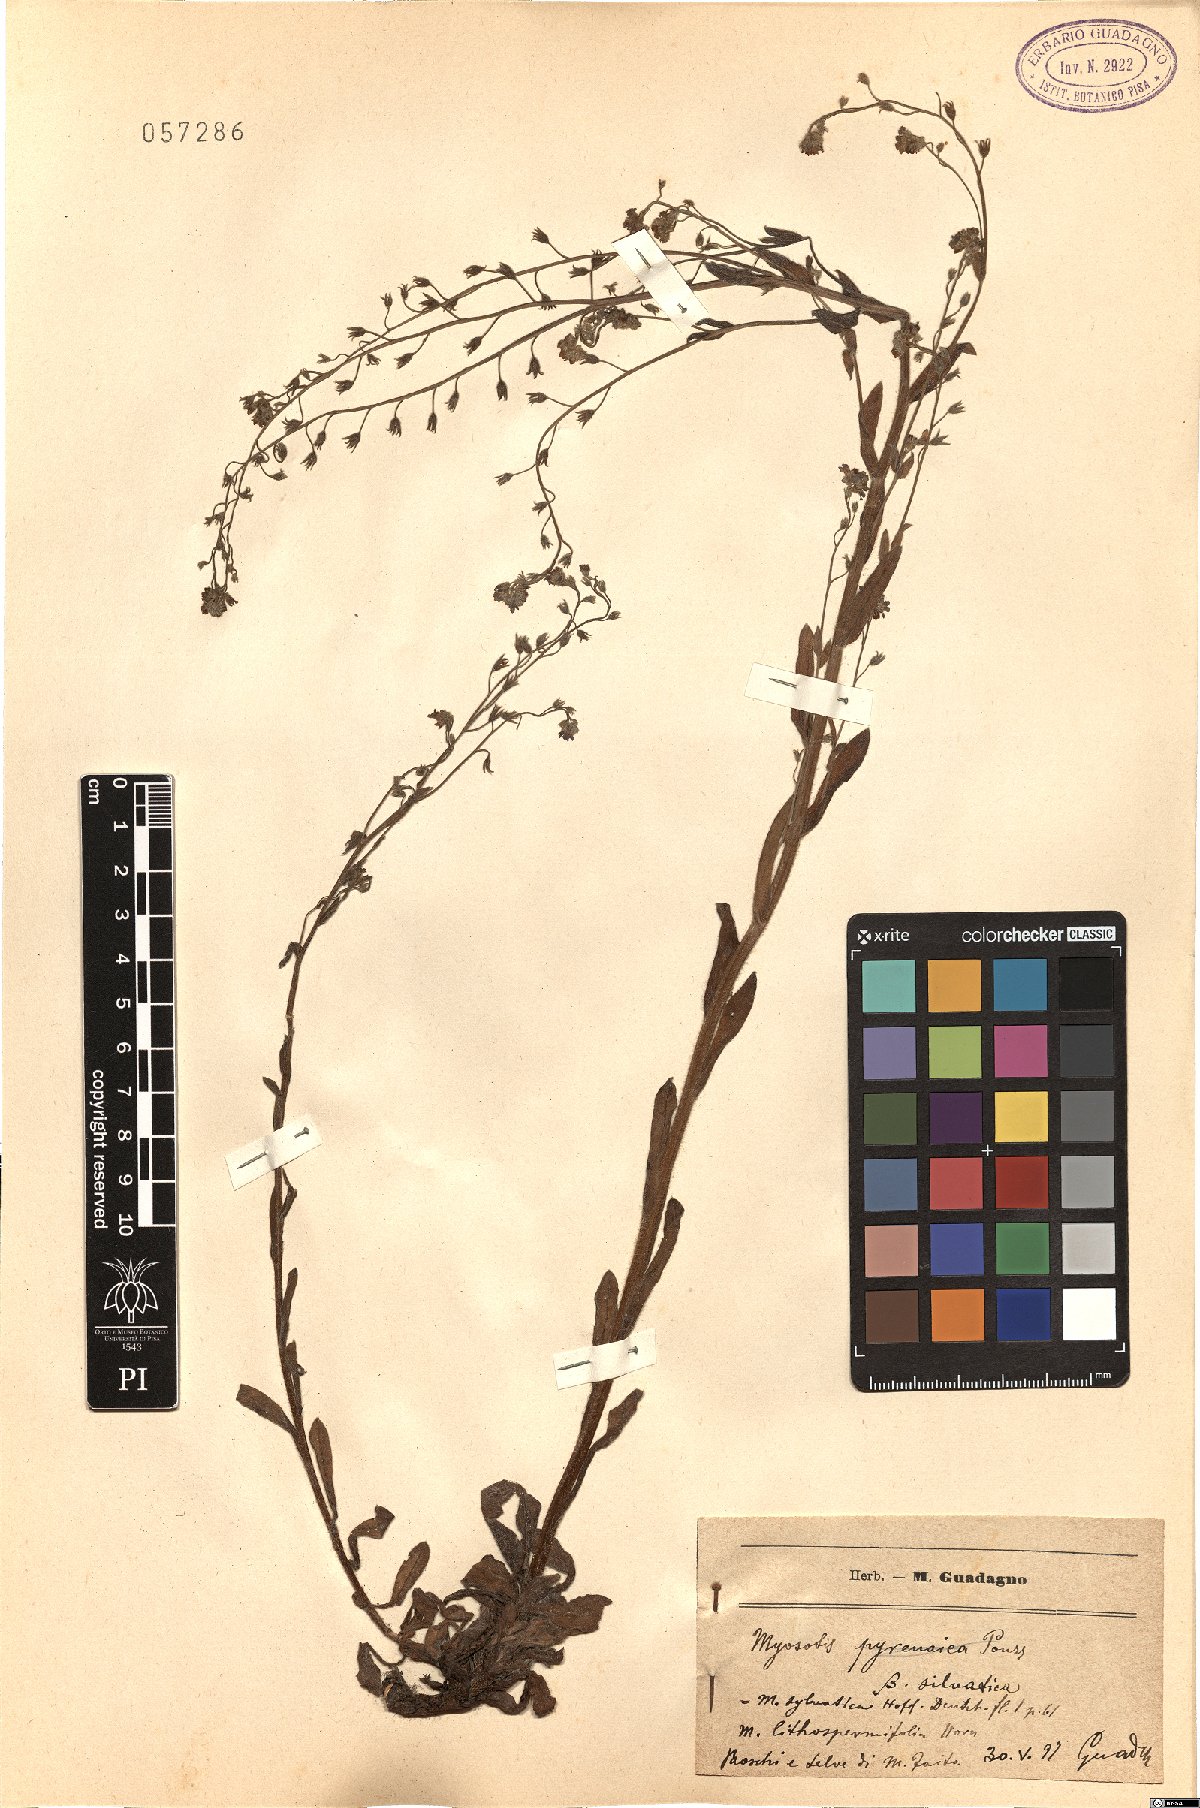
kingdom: Plantae
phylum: Tracheophyta
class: Magnoliopsida
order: Boraginales
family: Boraginaceae
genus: Myosotis
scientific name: Myosotis sylvatica
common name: Wood forget-me-not
